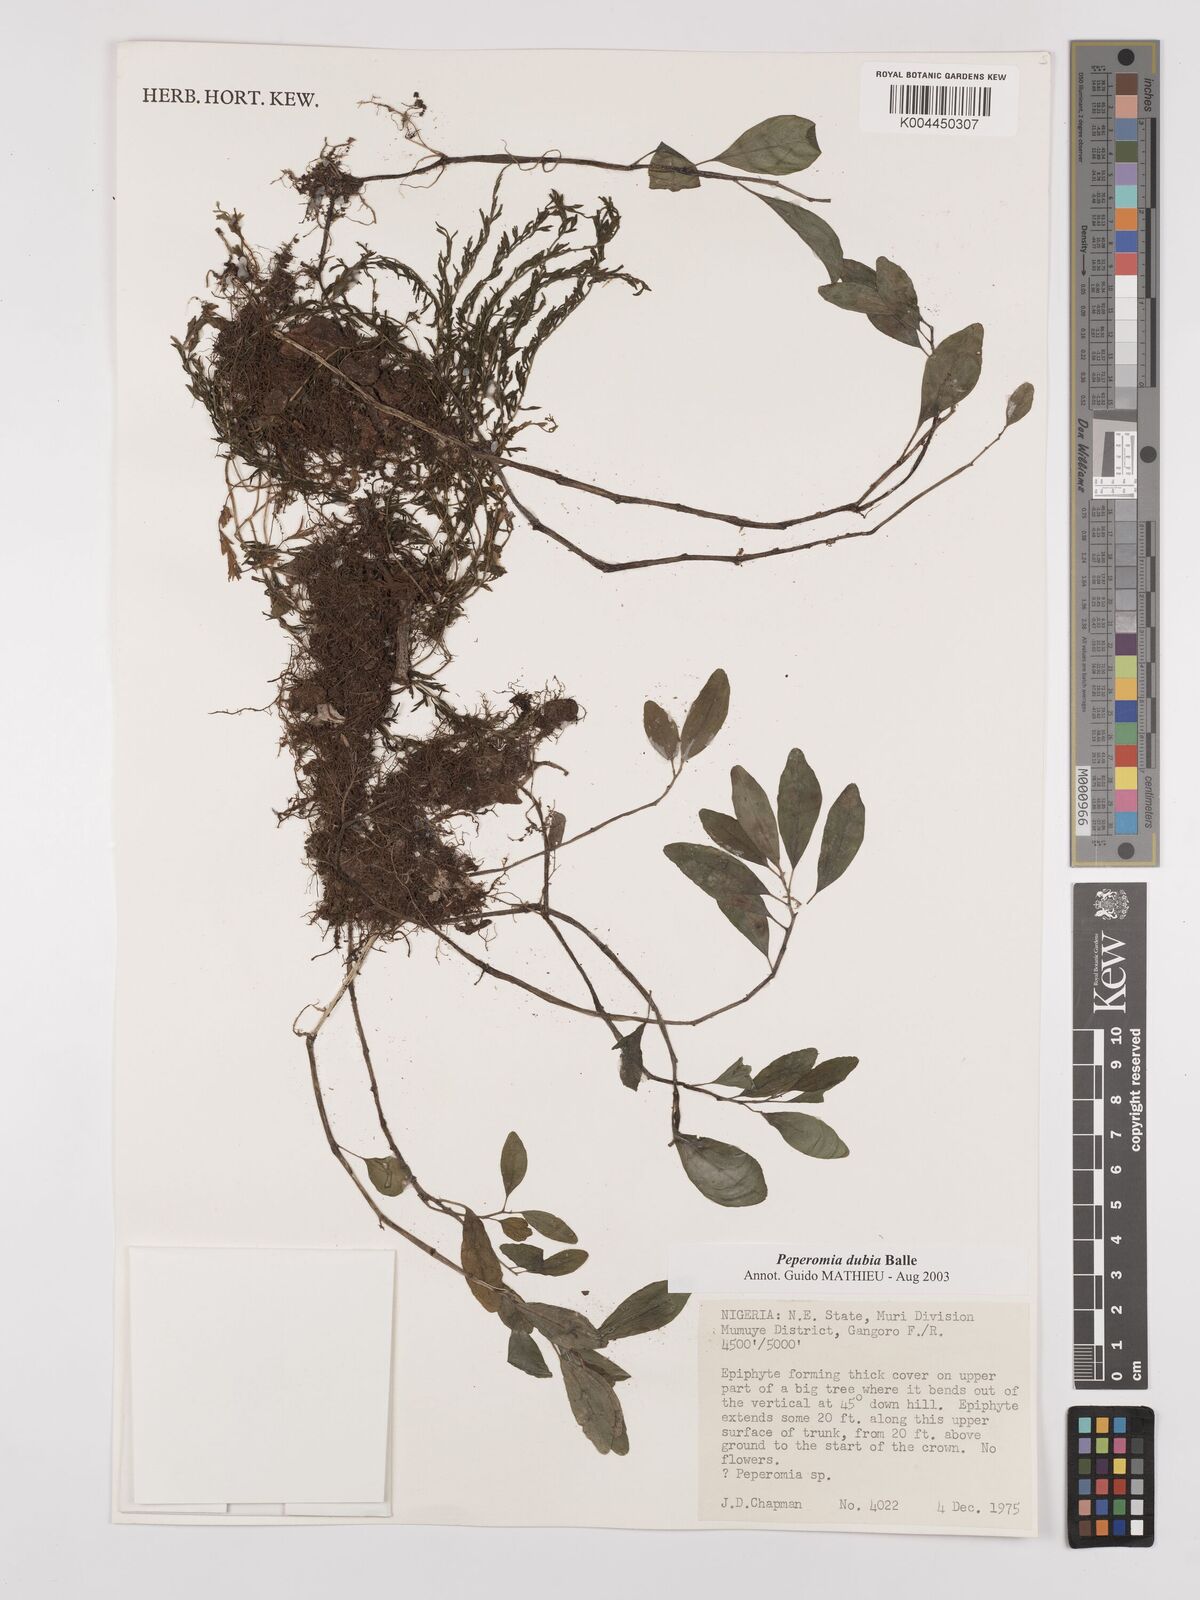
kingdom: Plantae
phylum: Tracheophyta
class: Magnoliopsida
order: Piperales
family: Piperaceae
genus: Peperomia
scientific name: Peperomia dubia
